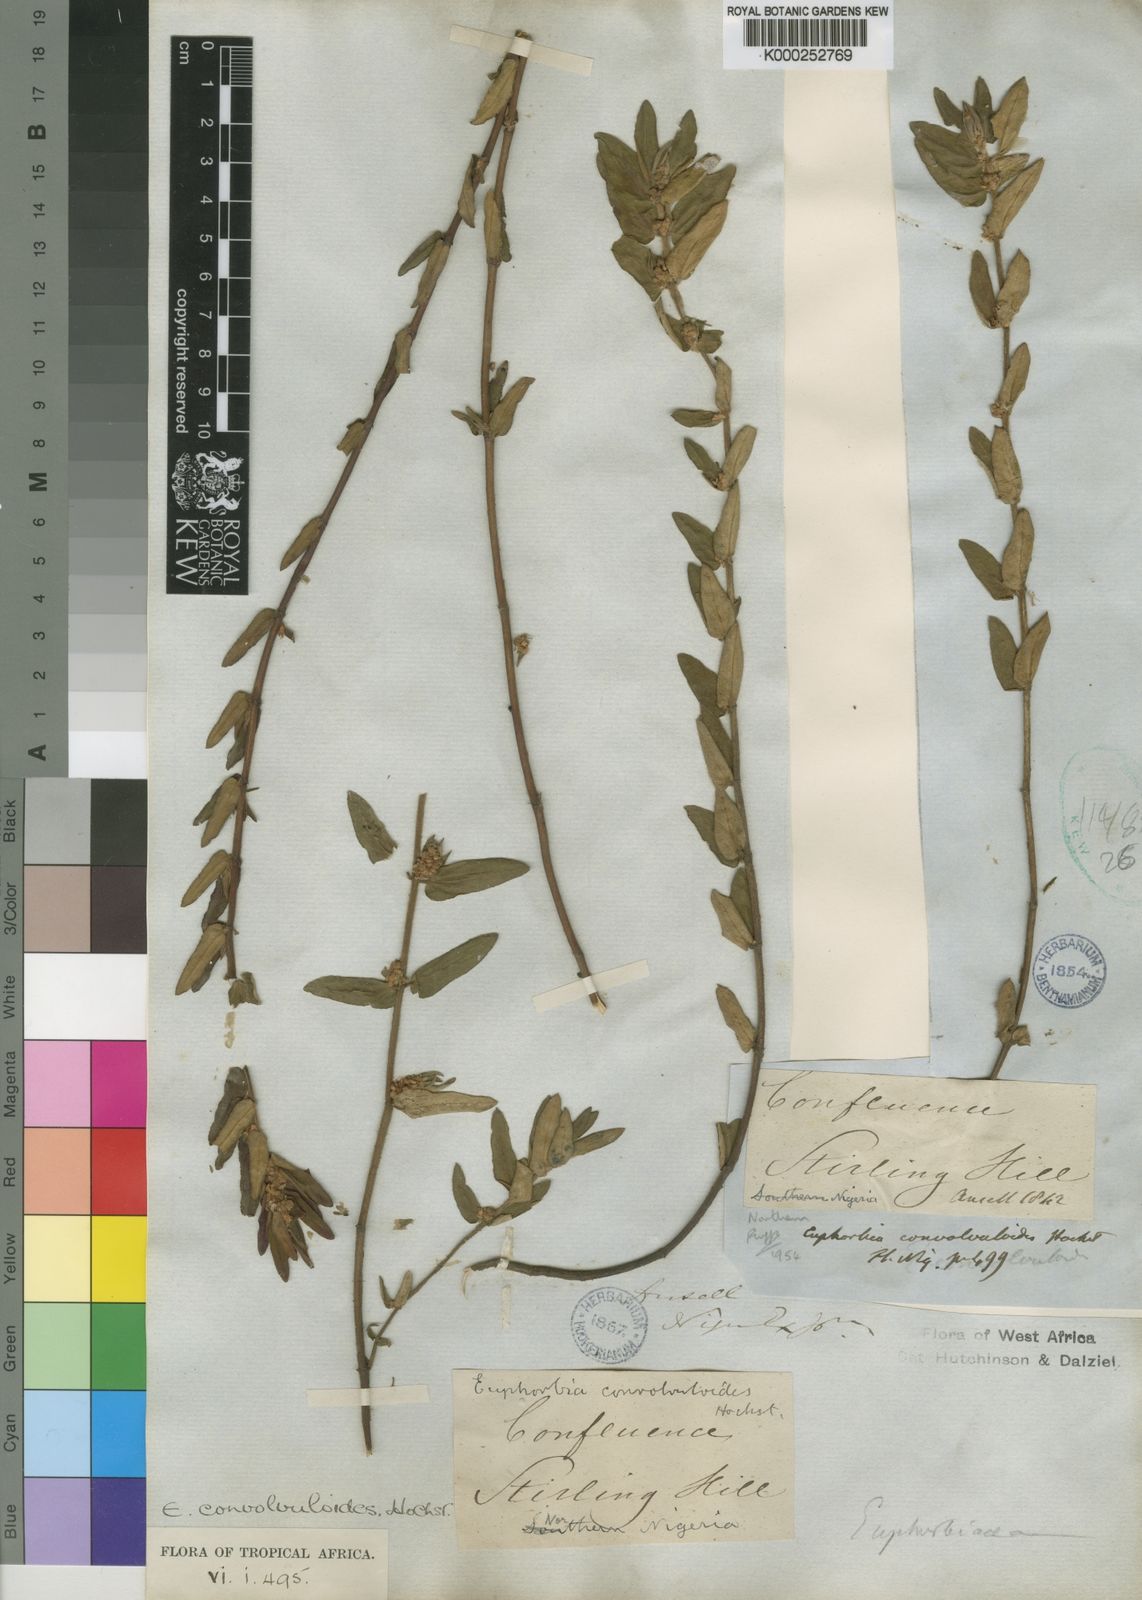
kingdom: Plantae
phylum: Tracheophyta
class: Magnoliopsida
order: Malpighiales
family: Euphorbiaceae
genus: Euphorbia
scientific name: Euphorbia convolvuloides
